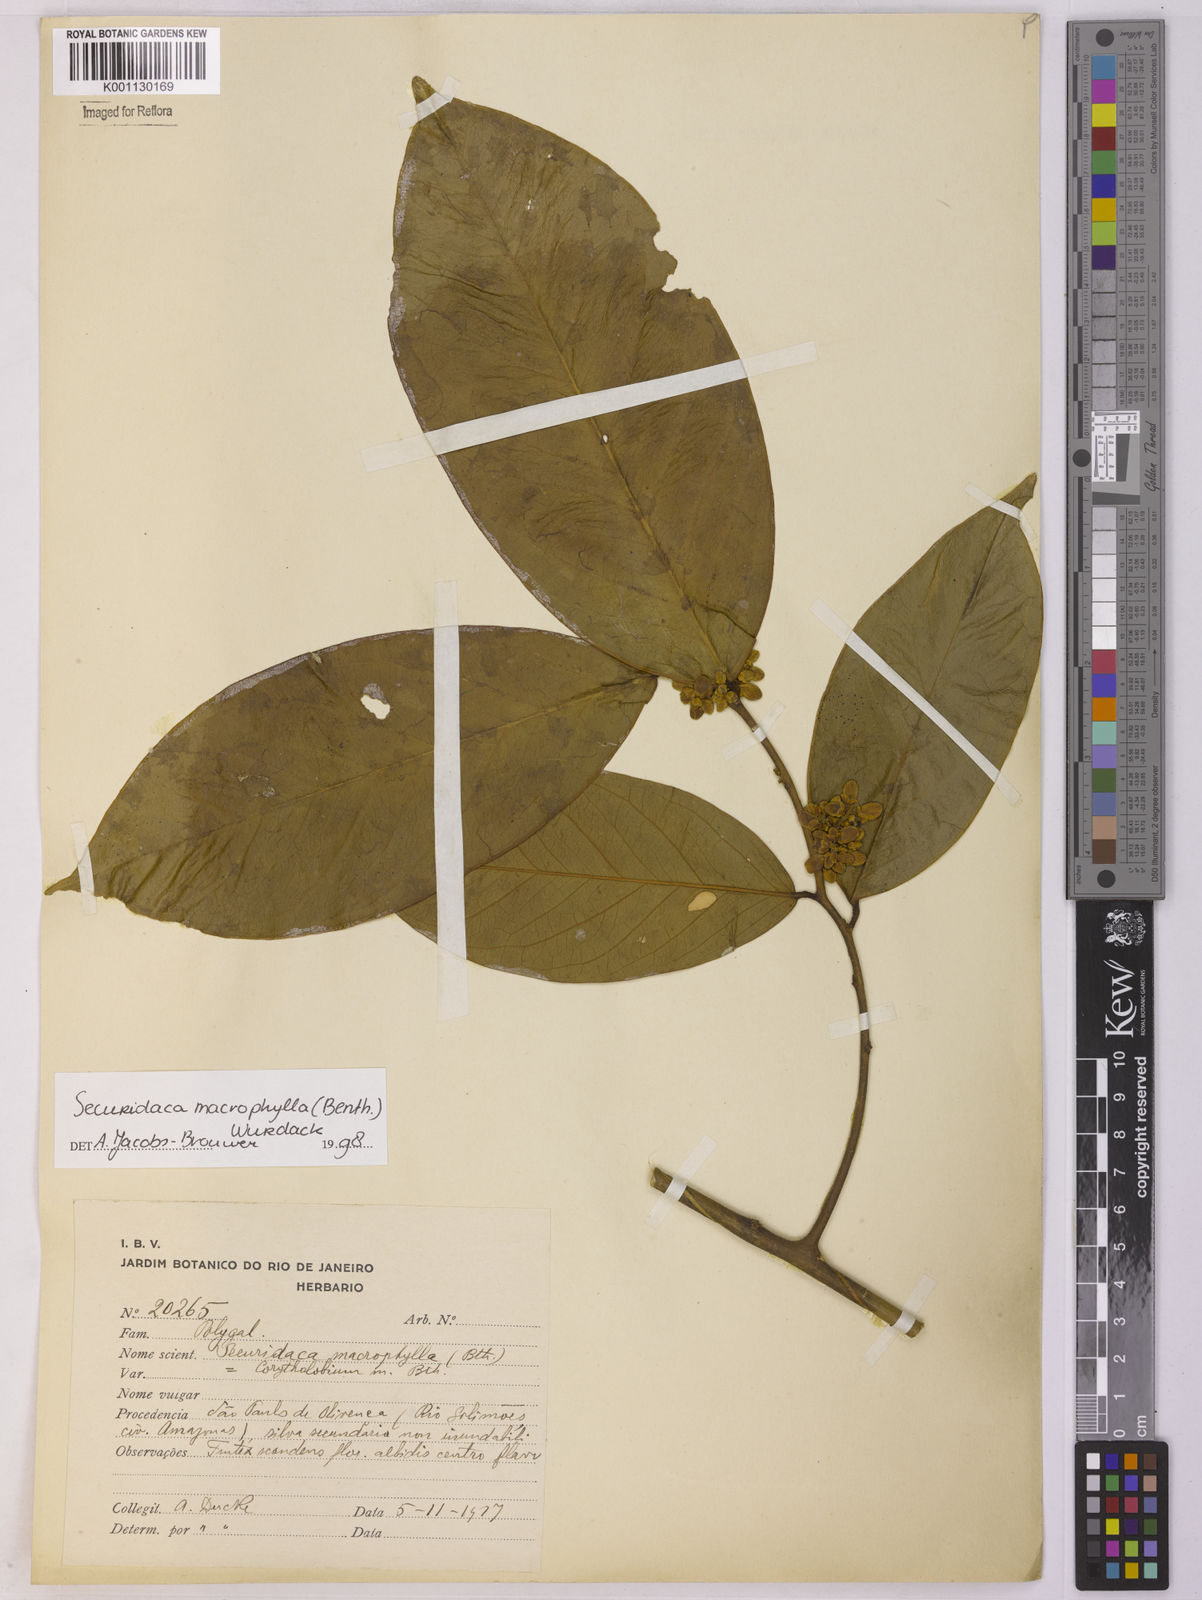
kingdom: Plantae
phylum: Tracheophyta
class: Magnoliopsida
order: Fabales
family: Polygalaceae
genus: Securidaca
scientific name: Securidaca calophylla
